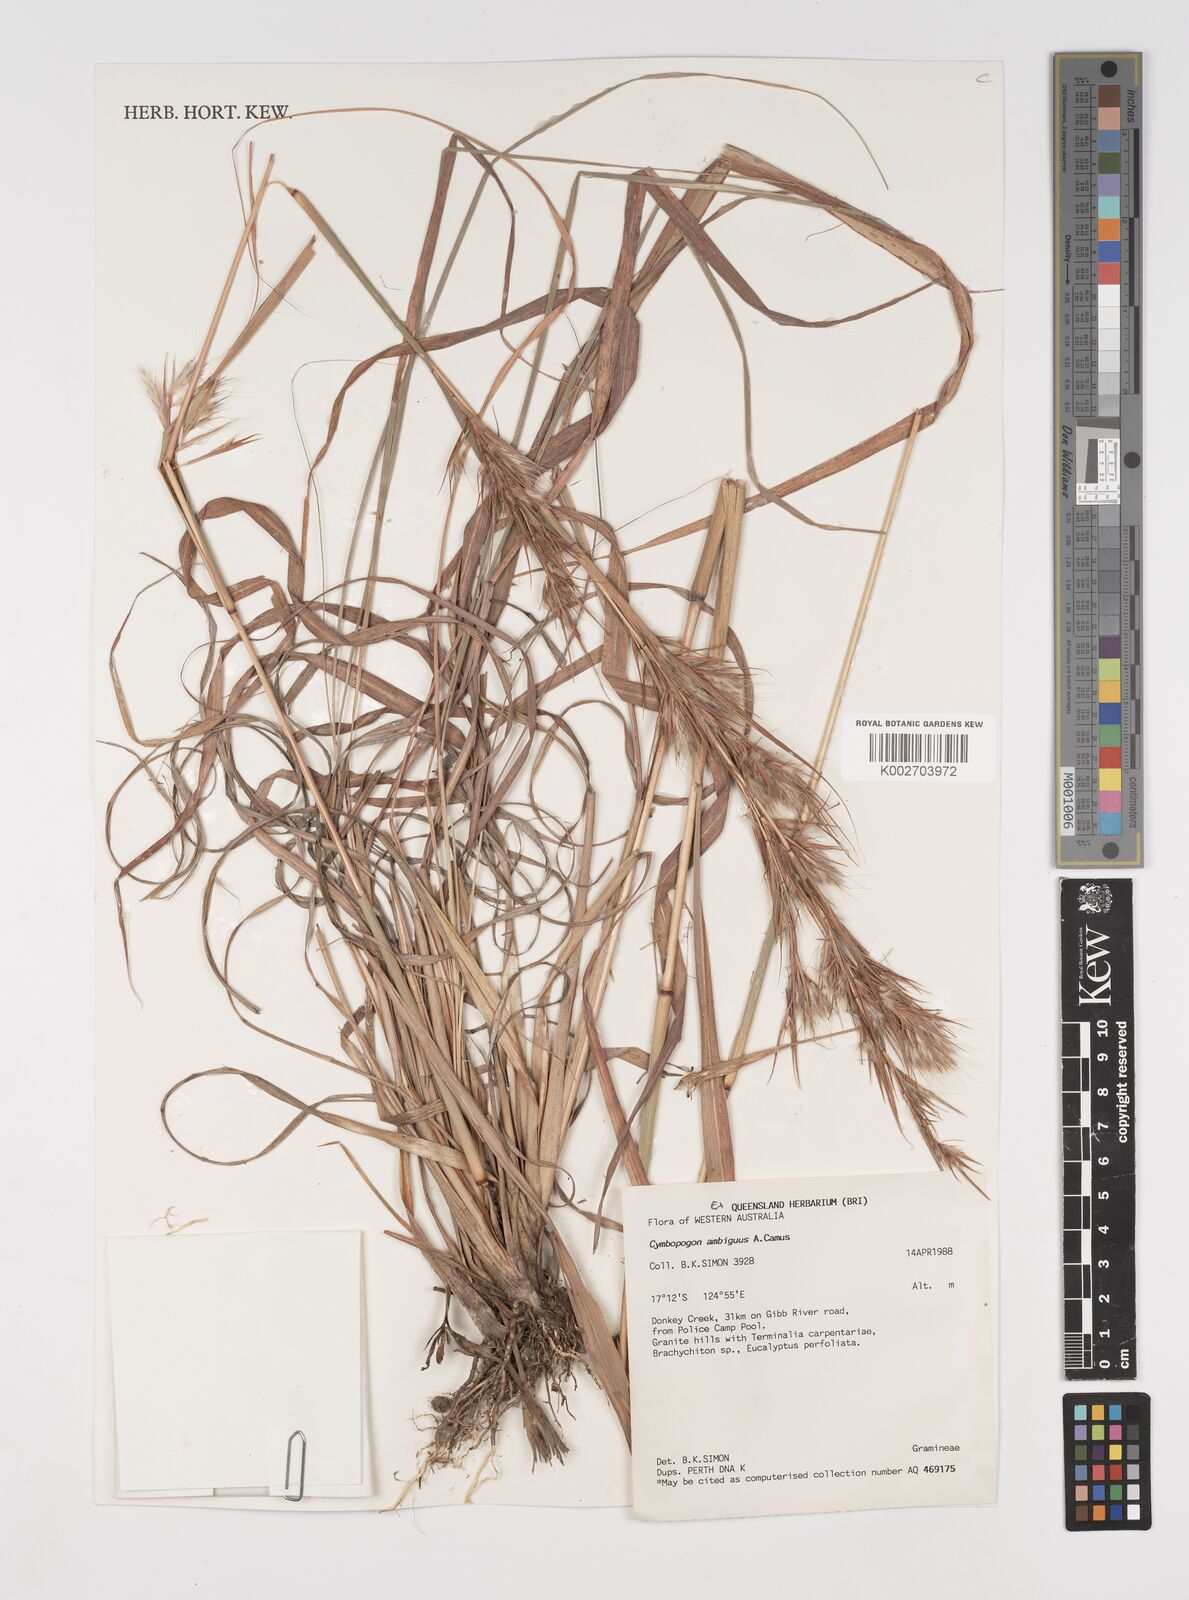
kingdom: Plantae
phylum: Tracheophyta
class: Liliopsida
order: Poales
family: Poaceae
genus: Cymbopogon
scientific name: Cymbopogon ambiguus
